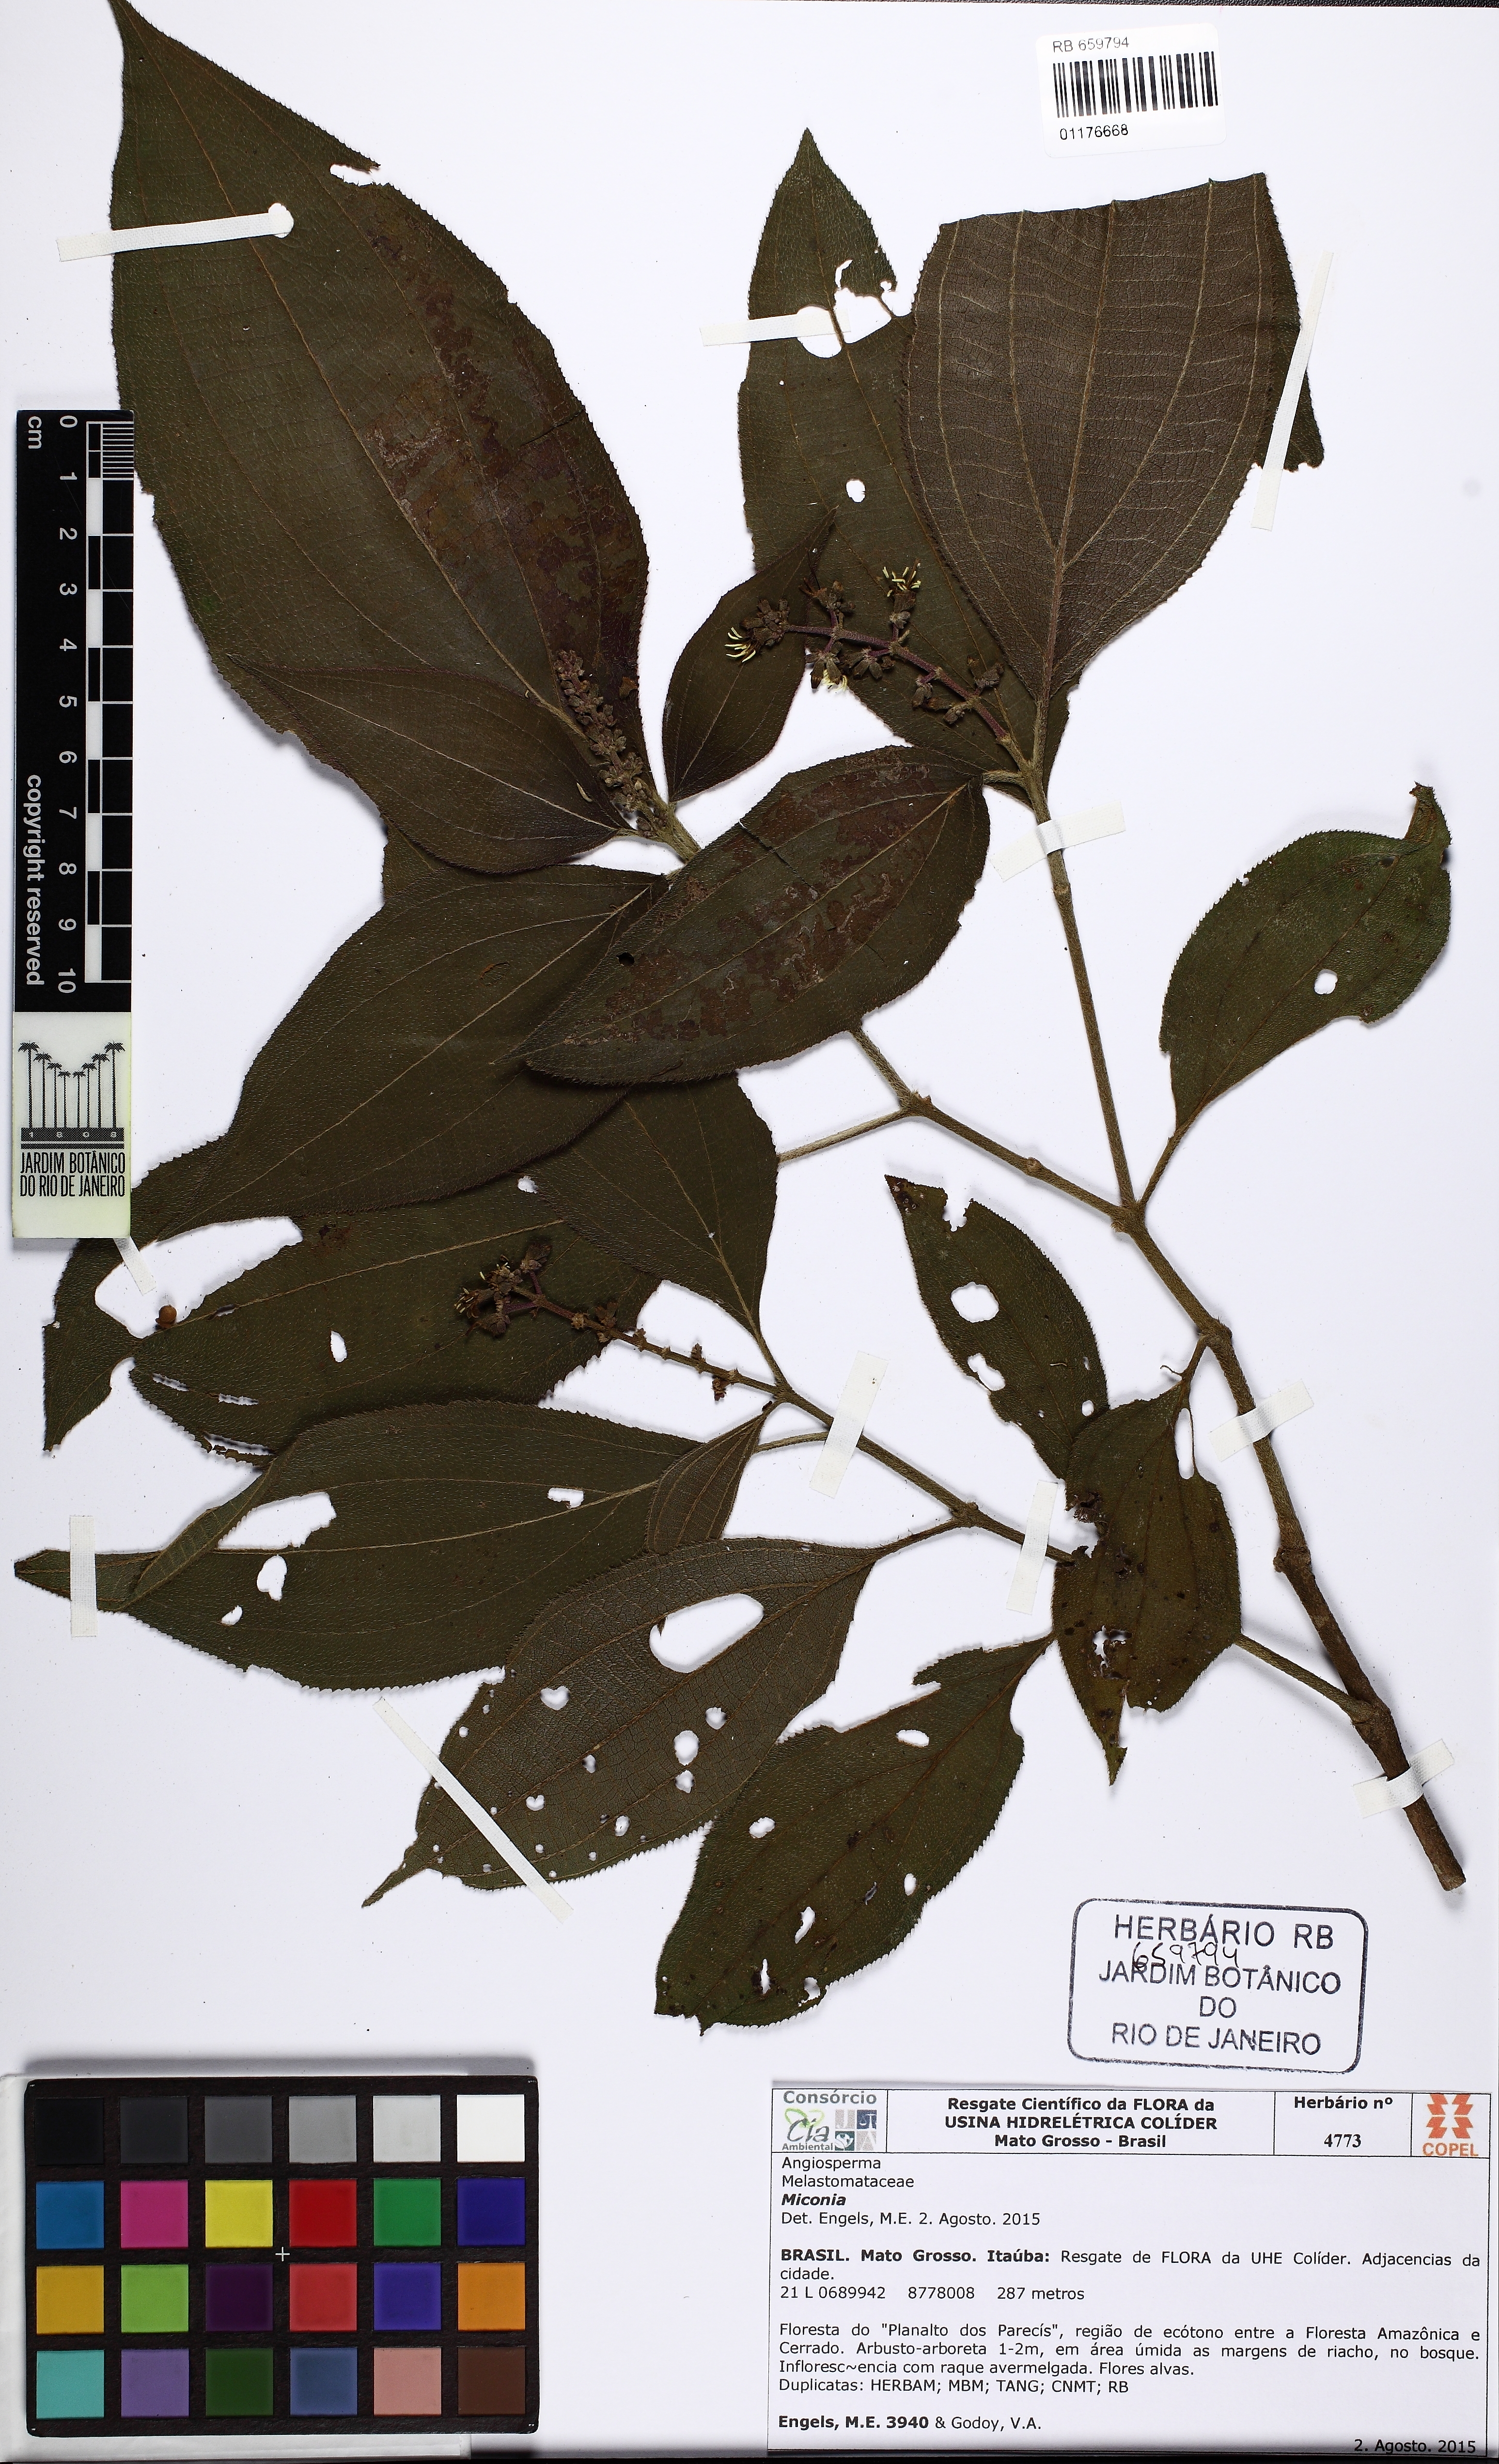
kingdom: Plantae
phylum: Tracheophyta
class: Magnoliopsida
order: Myrtales
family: Melastomataceae
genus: Miconia
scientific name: Miconia
